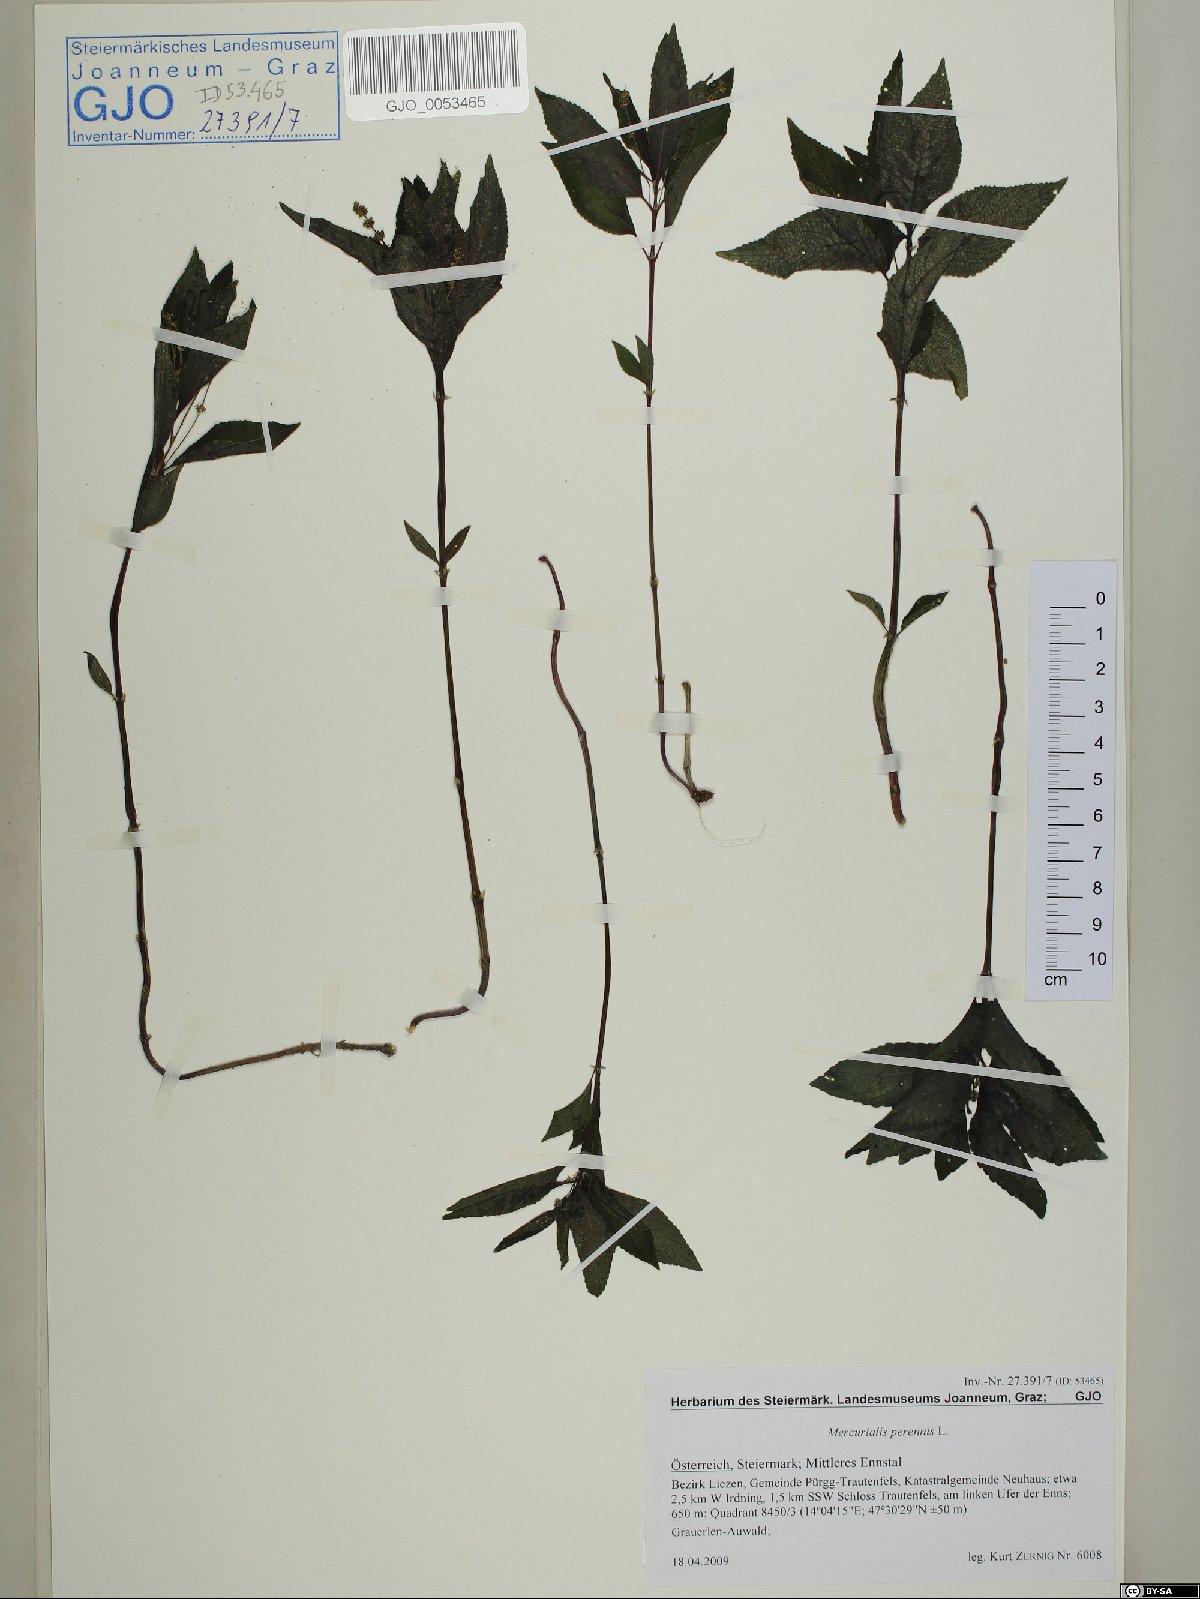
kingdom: Plantae
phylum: Tracheophyta
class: Magnoliopsida
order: Malpighiales
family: Euphorbiaceae
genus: Mercurialis
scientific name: Mercurialis perennis
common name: Dog mercury
